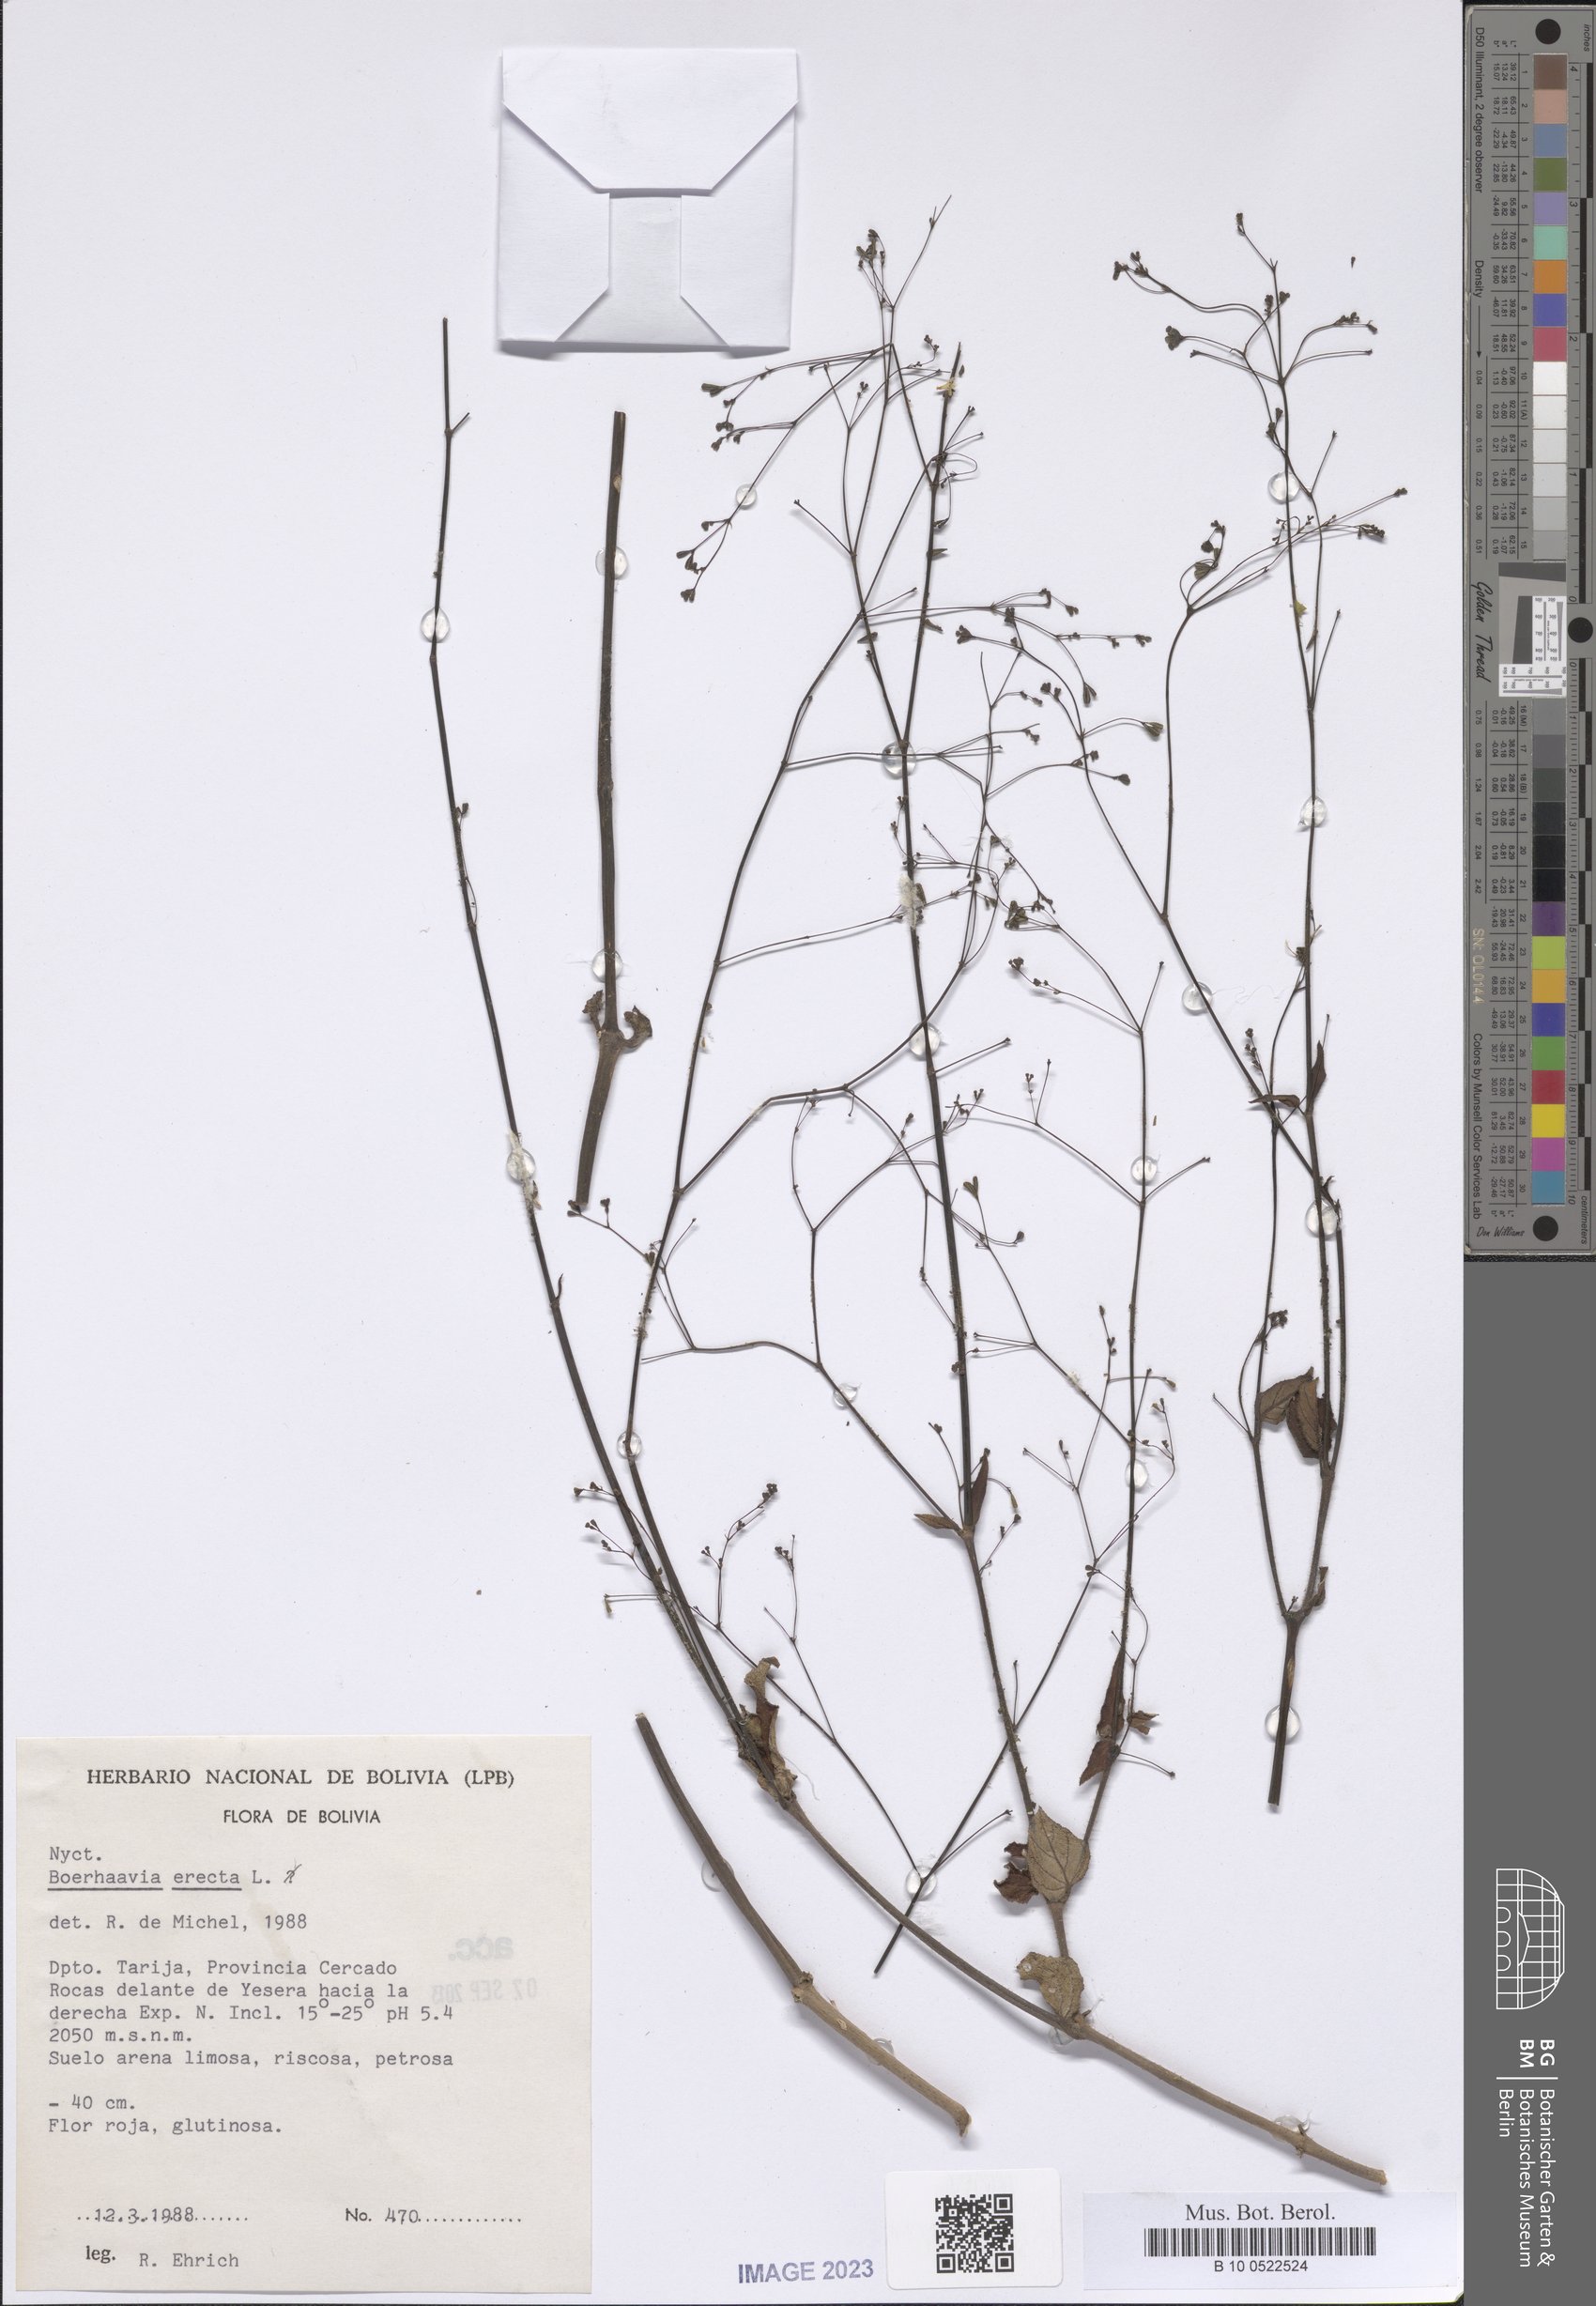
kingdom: Plantae
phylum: Tracheophyta
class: Magnoliopsida
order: Caryophyllales
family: Nyctaginaceae
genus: Boerhavia
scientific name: Boerhavia erecta
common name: Erect spiderling
